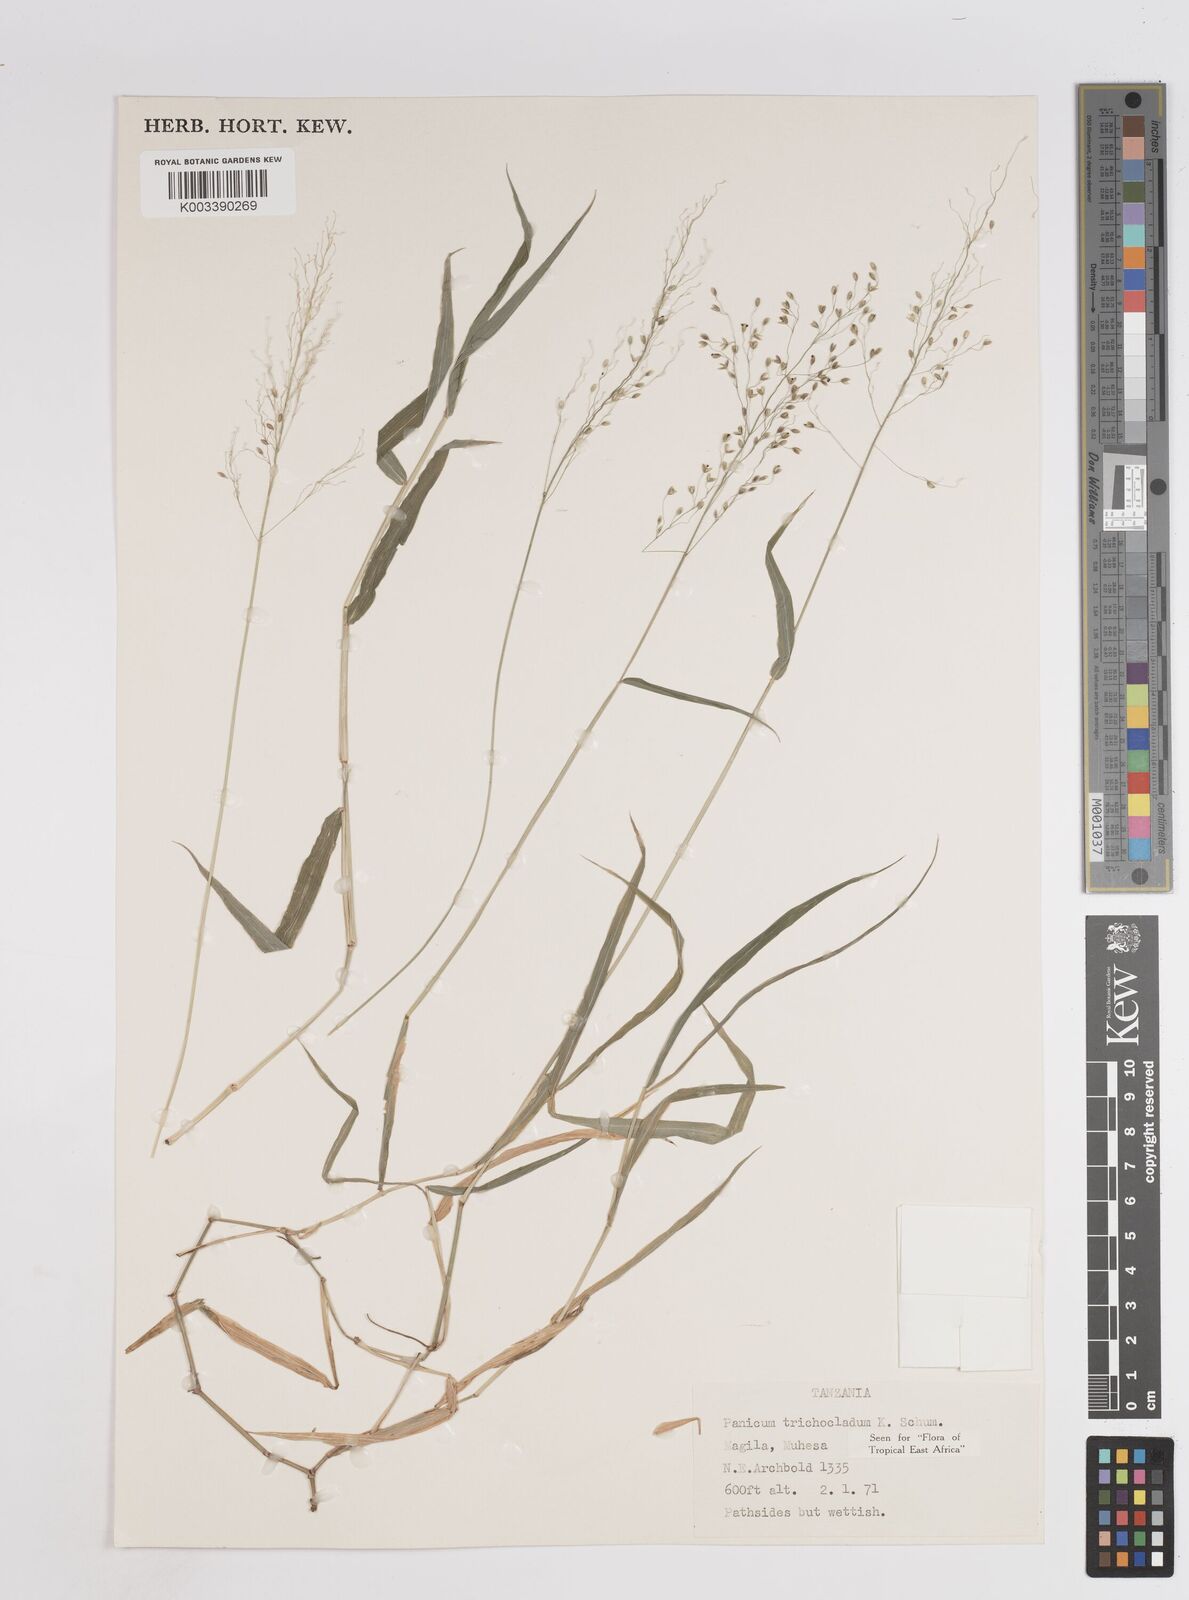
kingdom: Plantae
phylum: Tracheophyta
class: Liliopsida
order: Poales
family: Poaceae
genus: Panicum
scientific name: Panicum trichocladum
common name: Donkey grass
